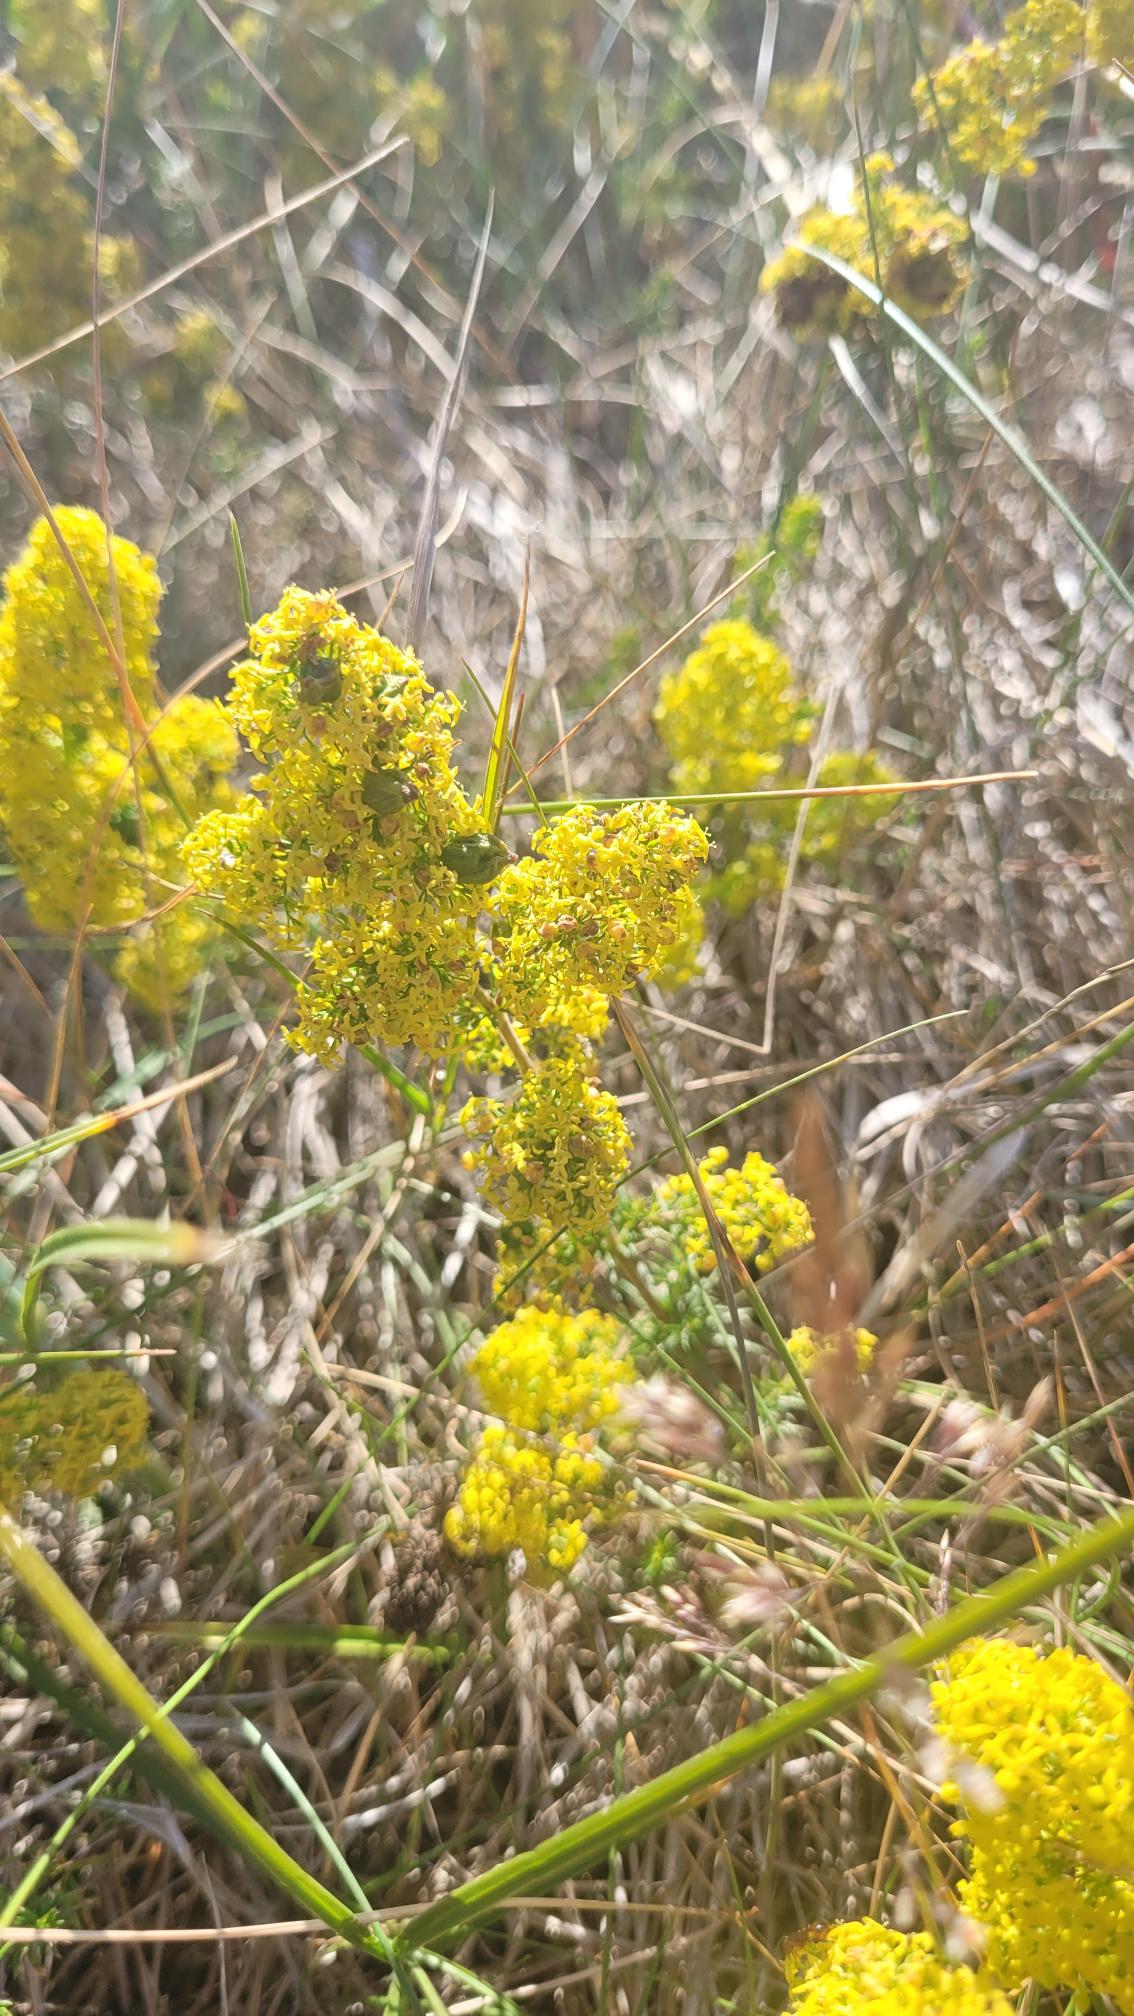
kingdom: Plantae
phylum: Tracheophyta
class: Magnoliopsida
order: Gentianales
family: Rubiaceae
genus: Galium
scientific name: Galium verum
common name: Gul snerre
